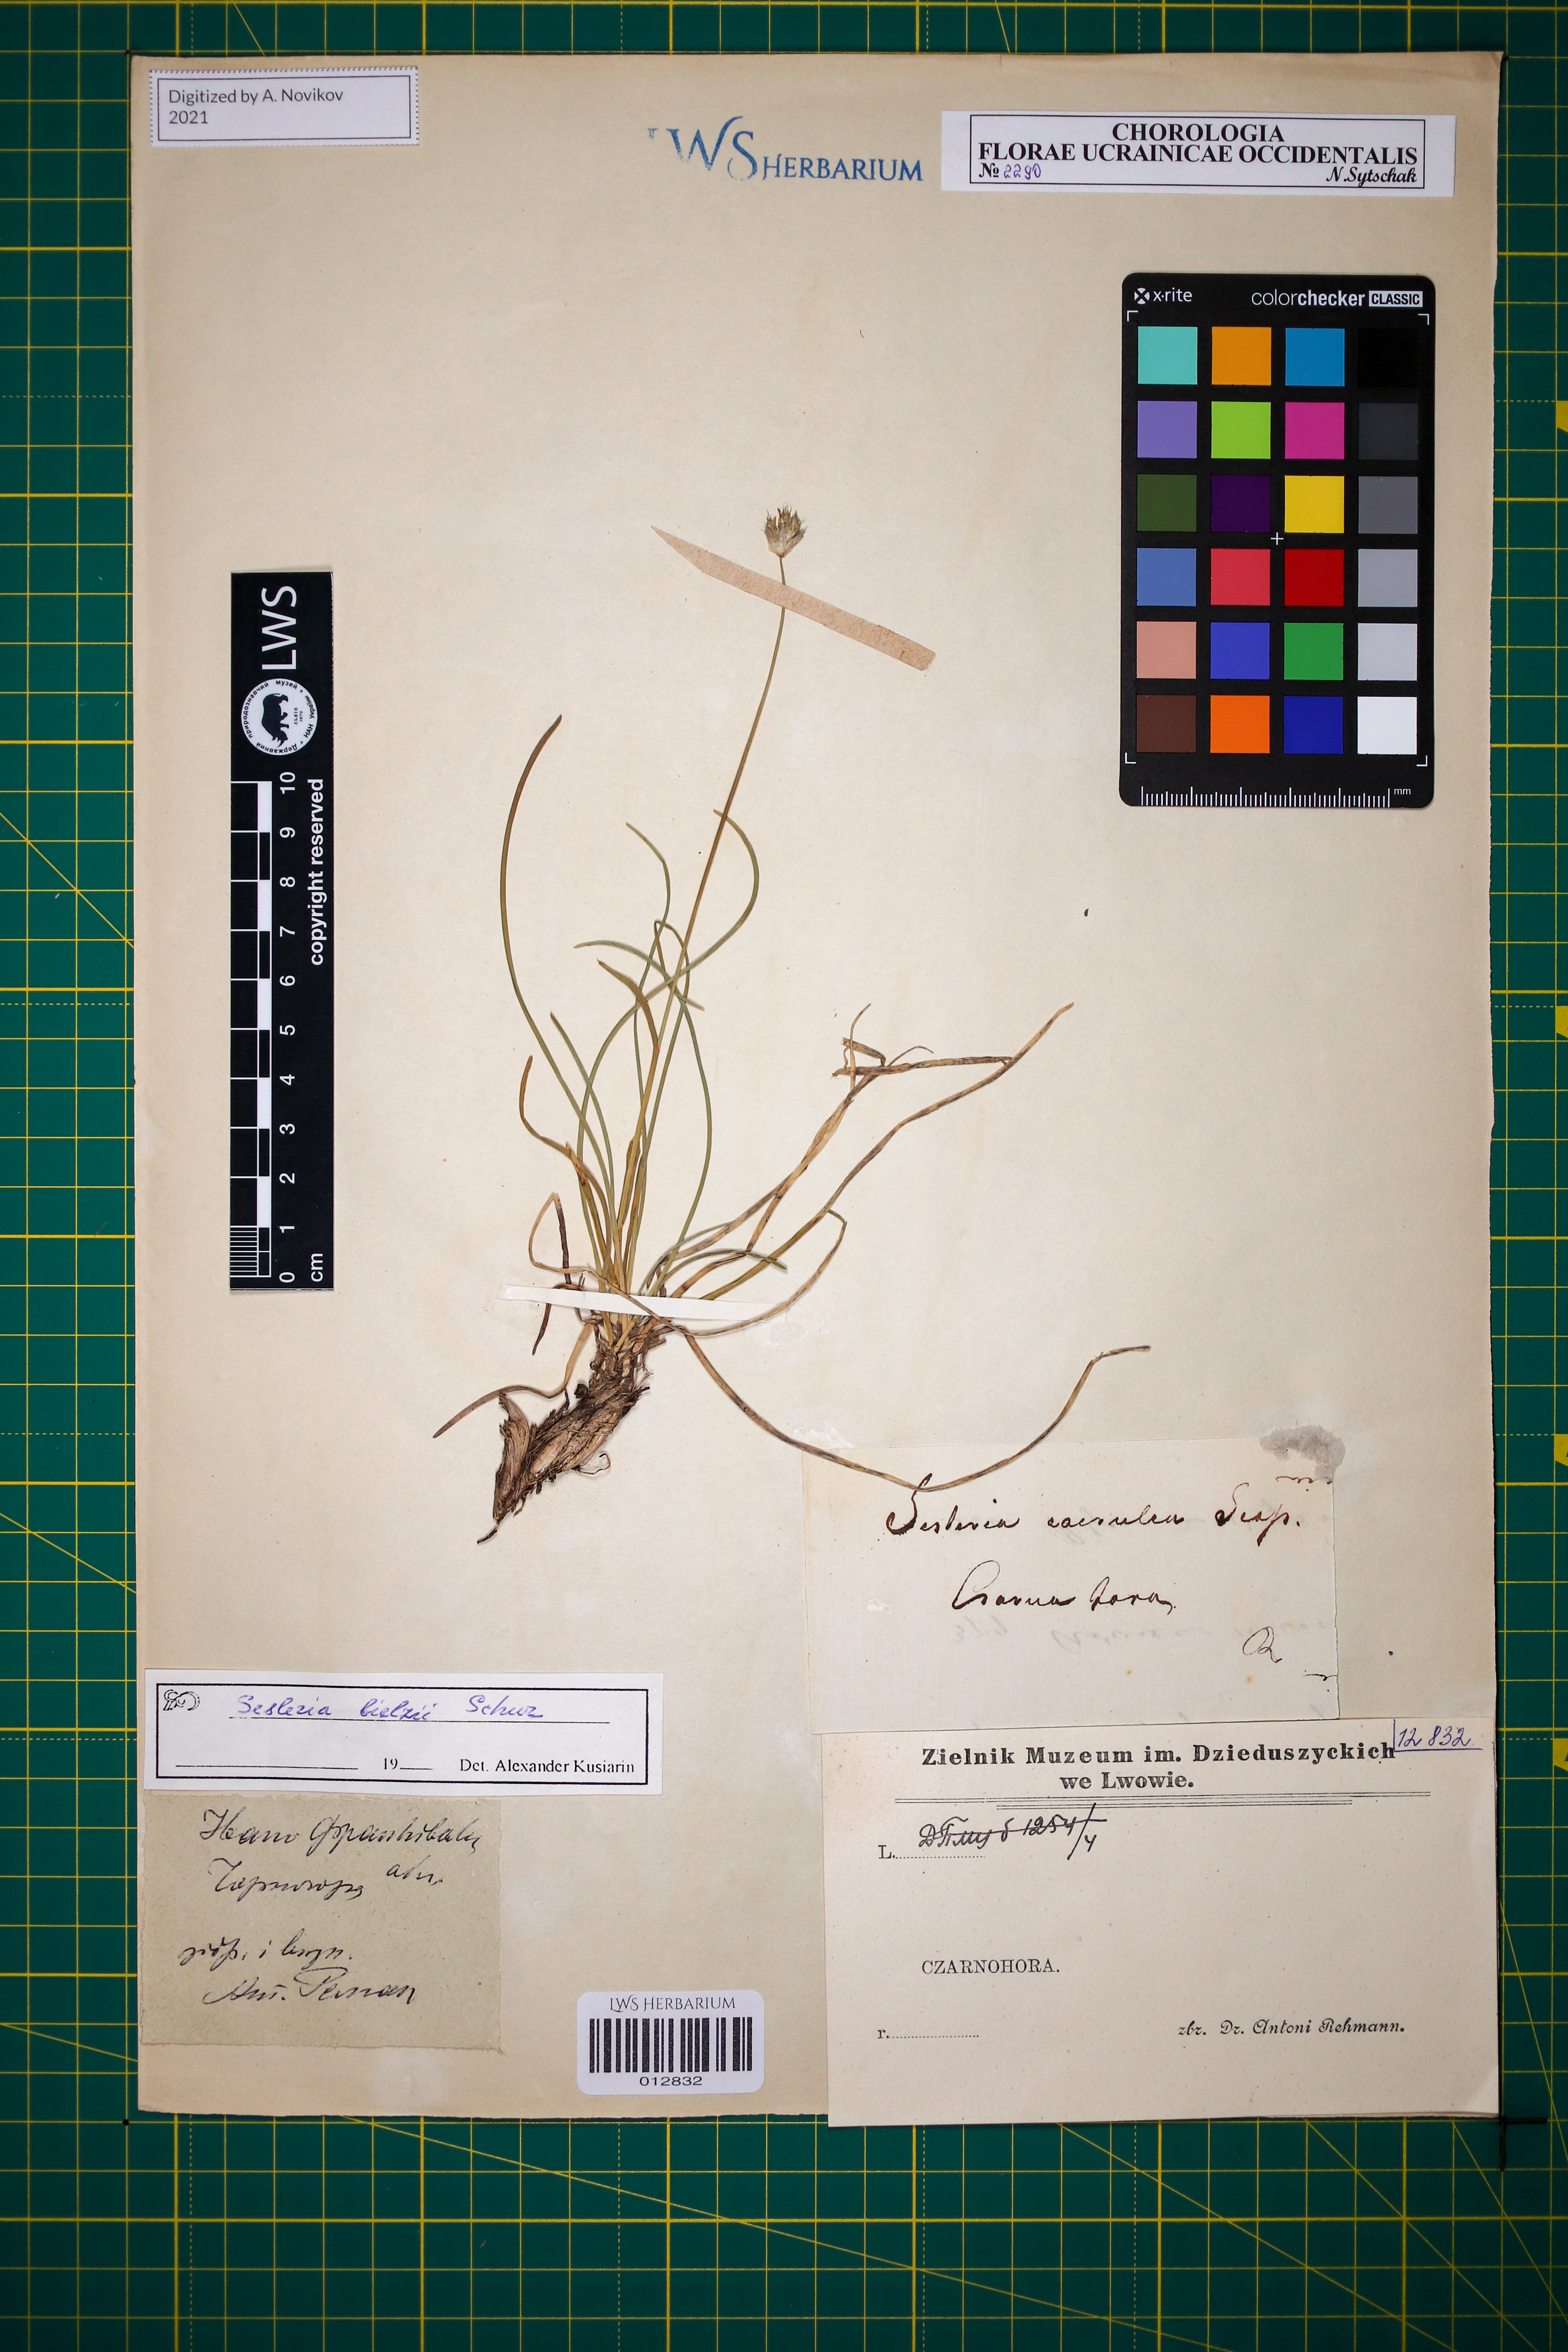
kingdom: Plantae
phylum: Tracheophyta
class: Liliopsida
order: Poales
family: Poaceae
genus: Sesleria
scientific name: Sesleria bielzii
